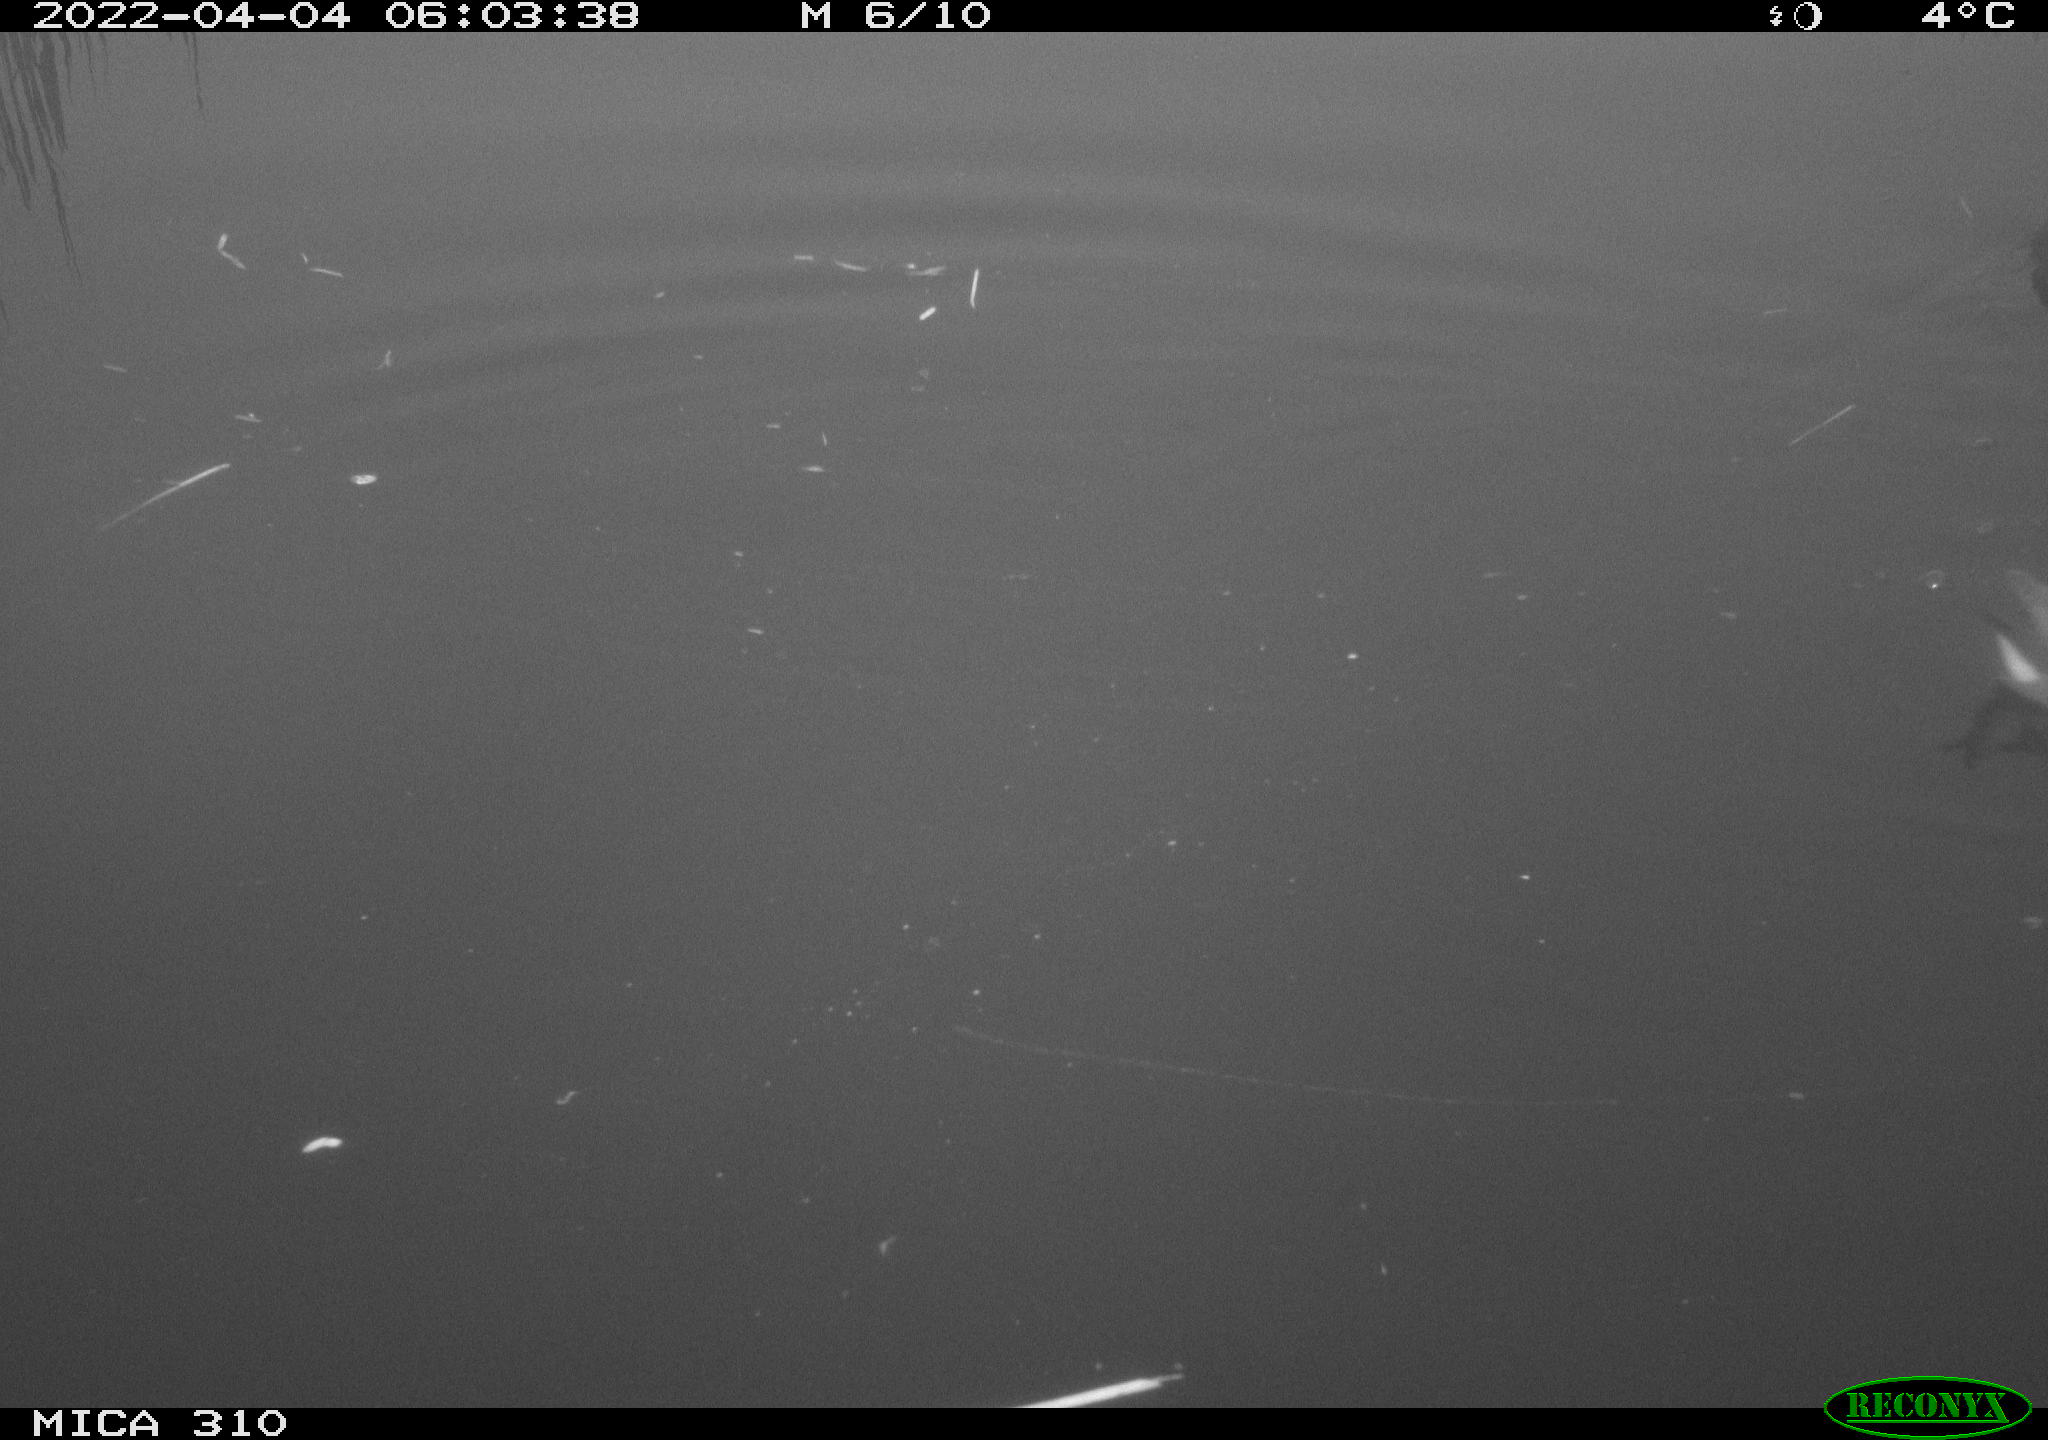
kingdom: Animalia
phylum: Chordata
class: Aves
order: Gruiformes
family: Rallidae
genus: Gallinula
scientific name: Gallinula chloropus
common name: Common moorhen
